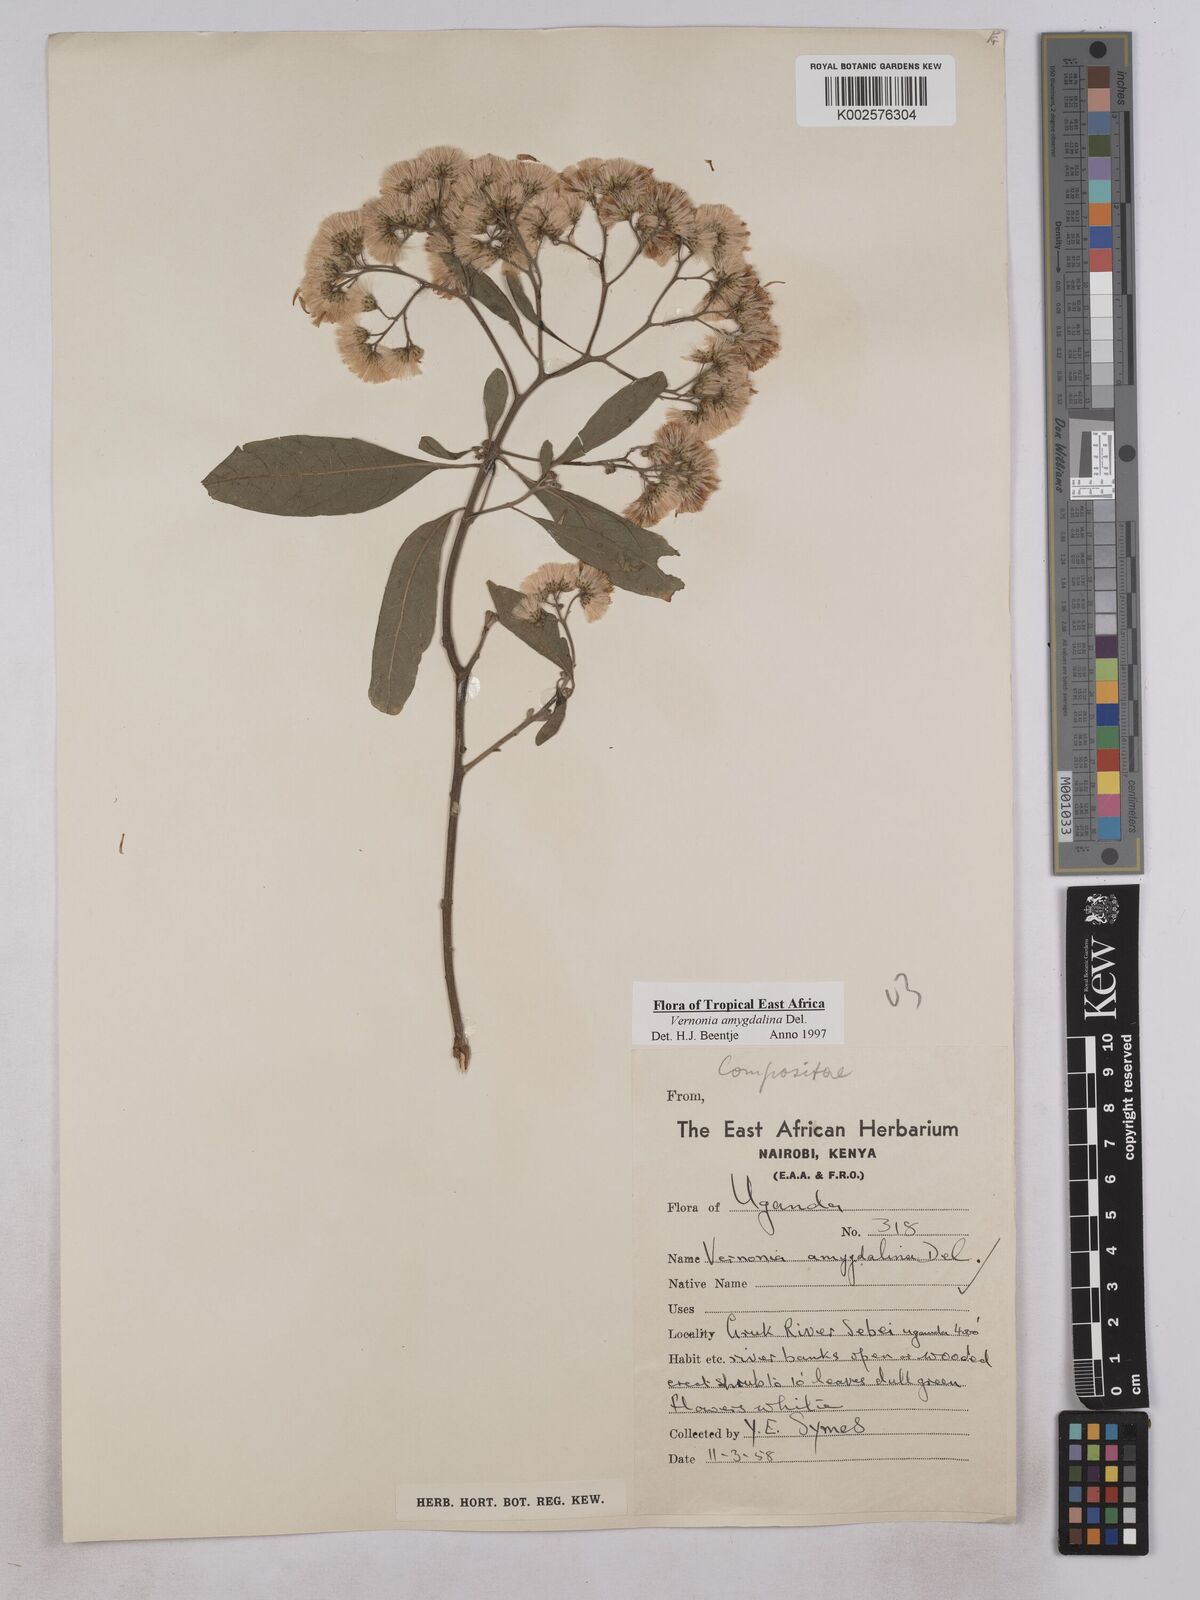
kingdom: Plantae
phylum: Tracheophyta
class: Magnoliopsida
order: Asterales
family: Asteraceae
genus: Gymnanthemum
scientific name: Gymnanthemum amygdalinum
